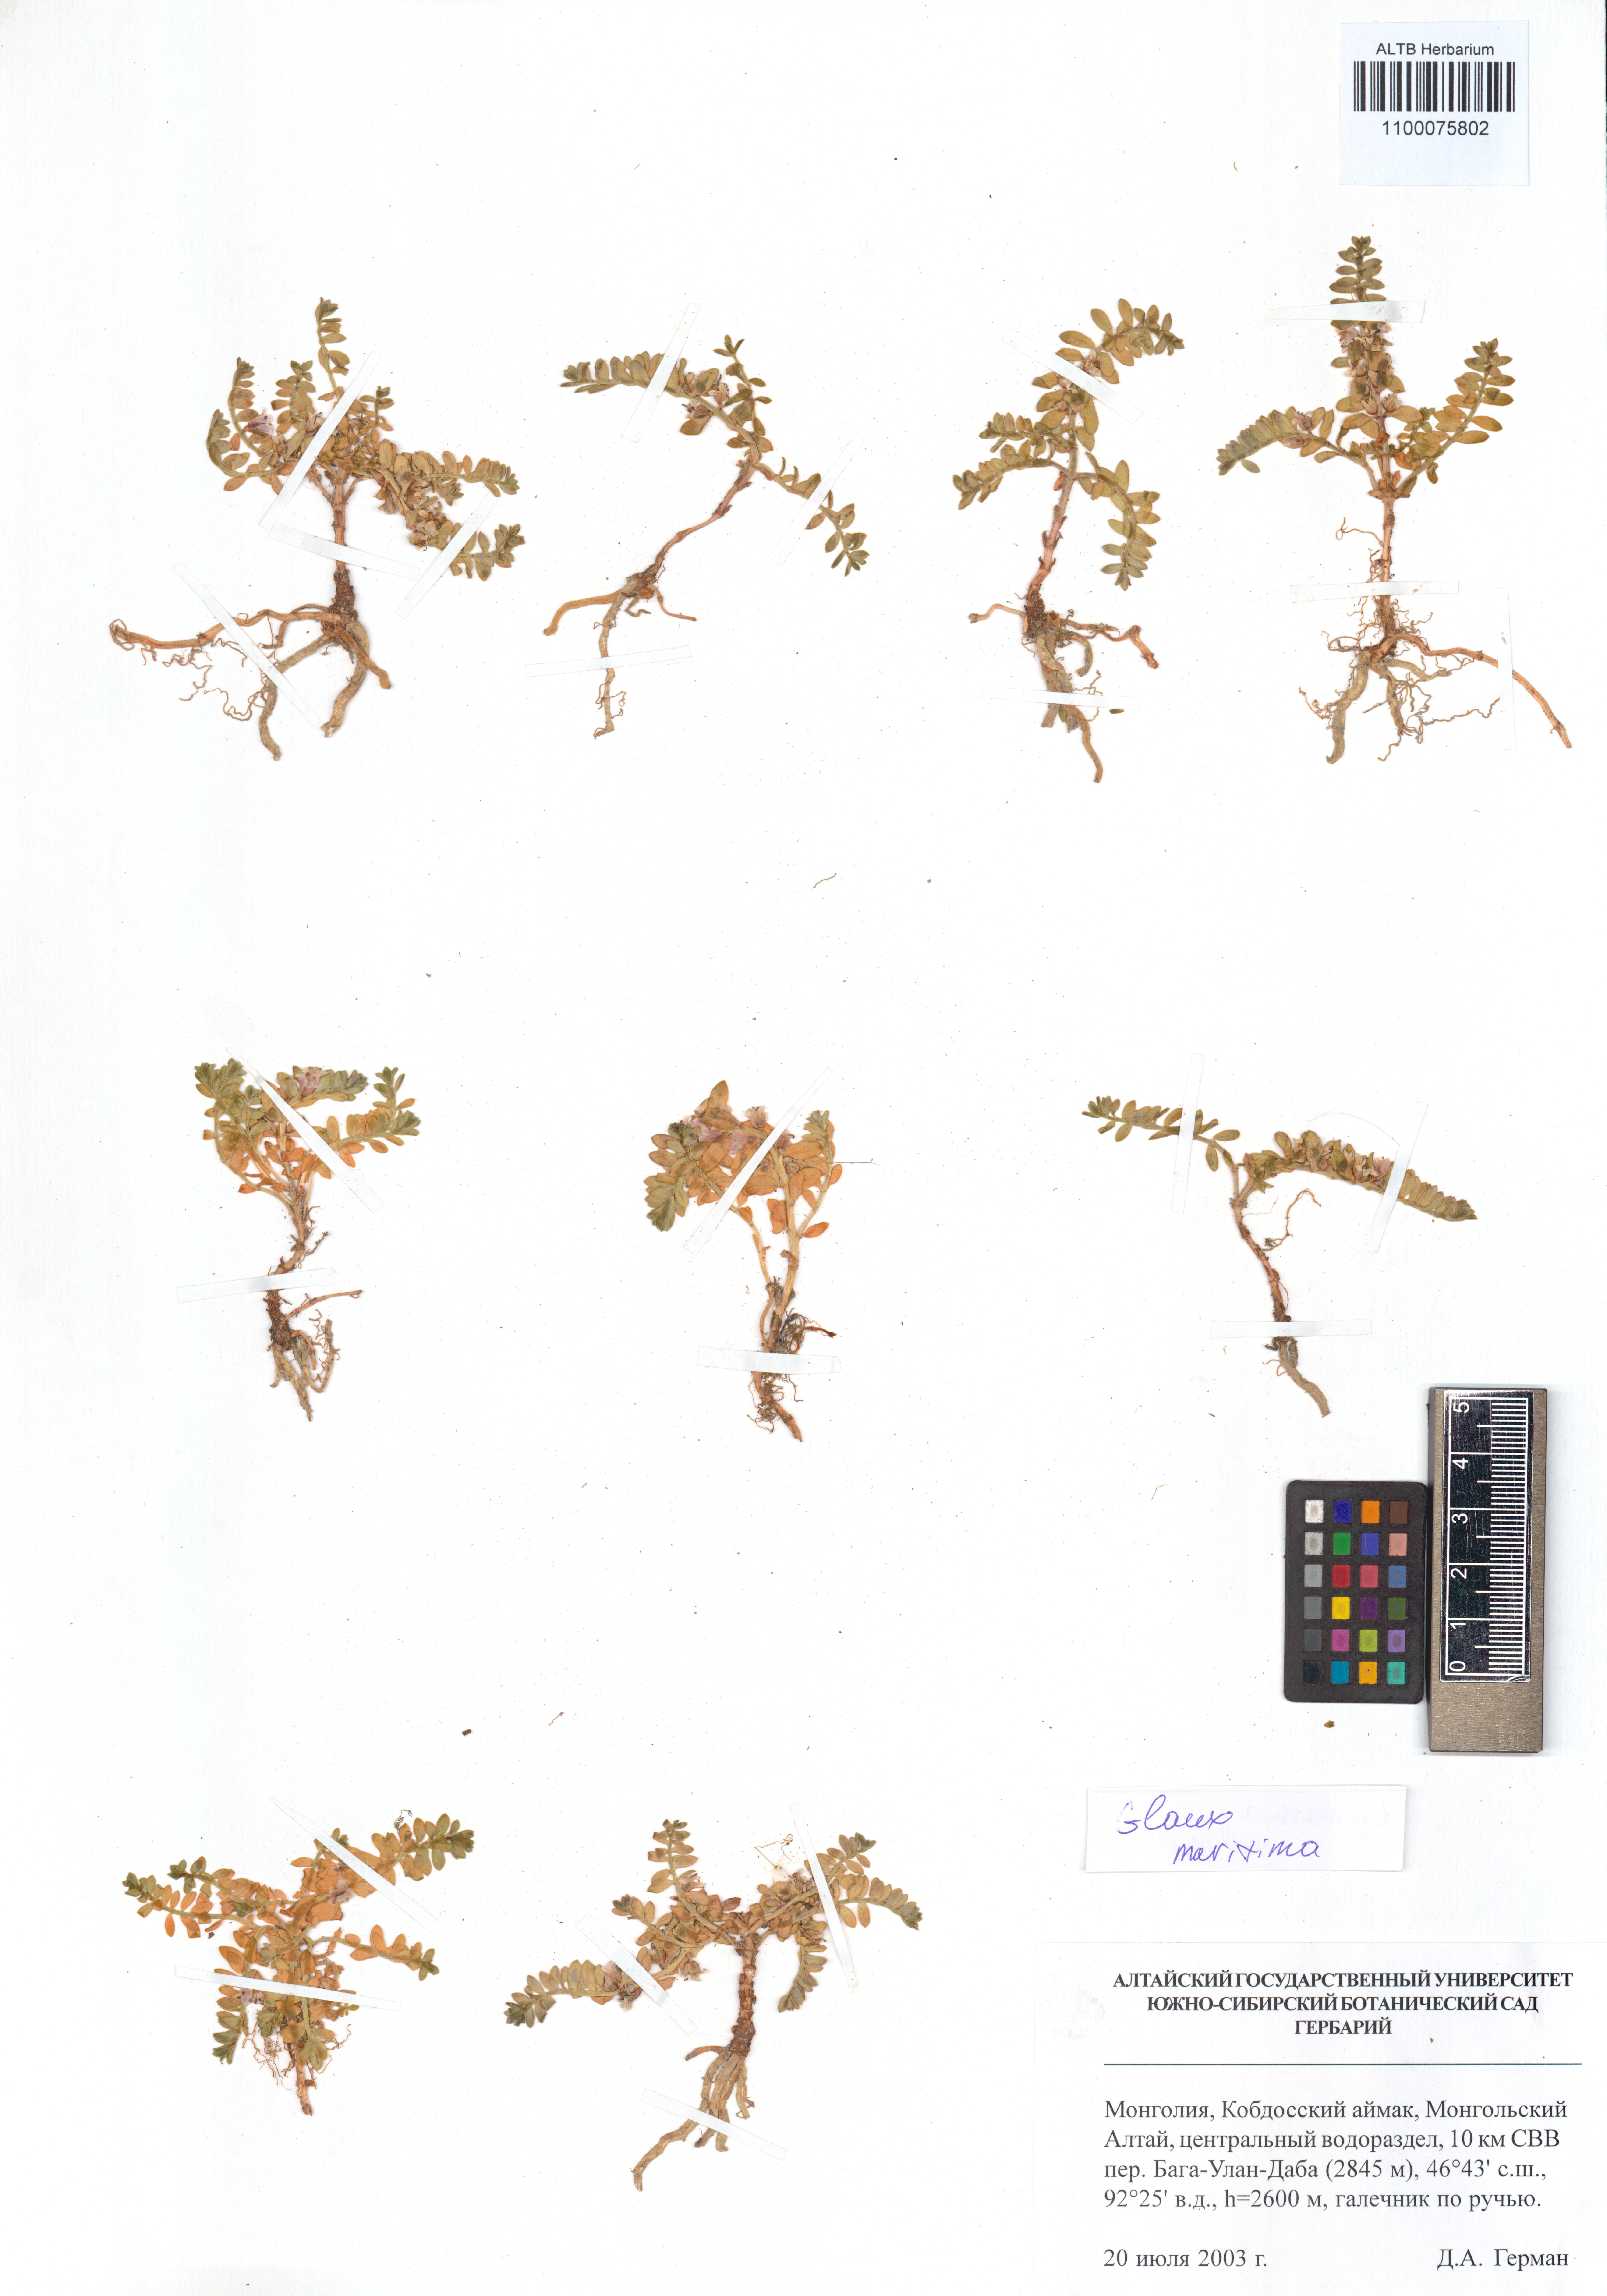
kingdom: Plantae
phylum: Tracheophyta
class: Magnoliopsida
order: Ericales
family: Primulaceae
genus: Lysimachia
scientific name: Lysimachia maritima
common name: Sea milkwort
